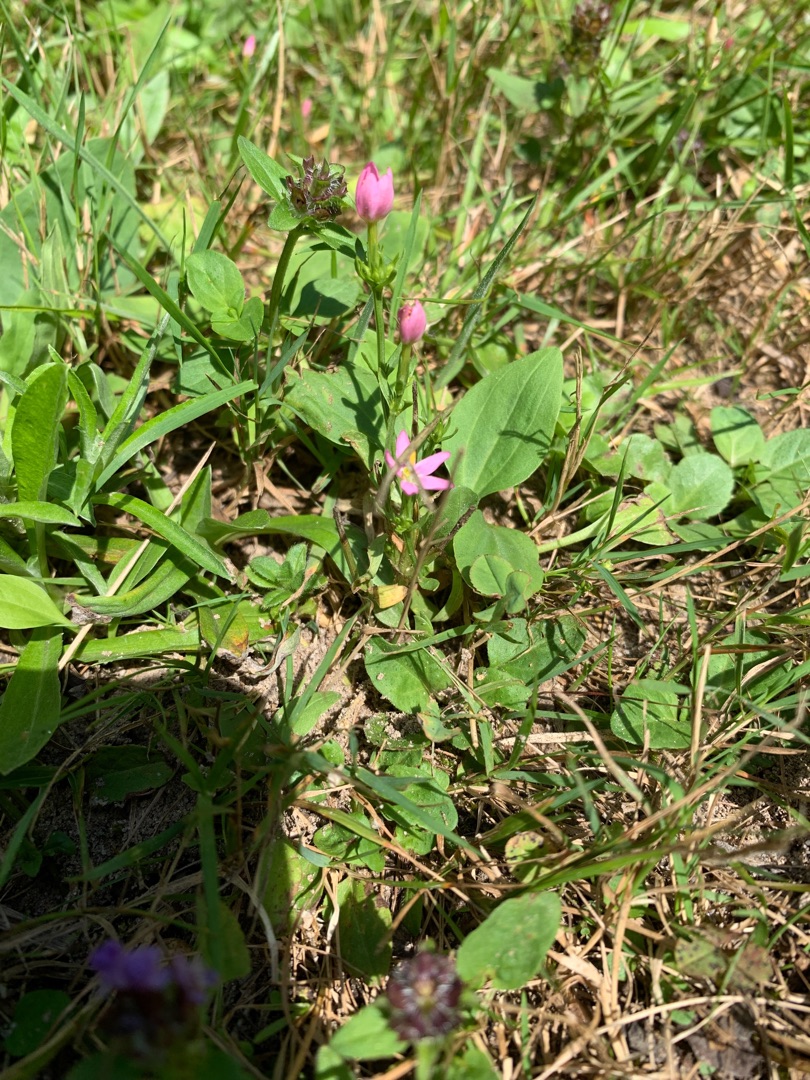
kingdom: Plantae
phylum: Tracheophyta
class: Magnoliopsida
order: Gentianales
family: Gentianaceae
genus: Centaurium
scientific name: Centaurium erythraea
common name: Mark-tusindgylden
